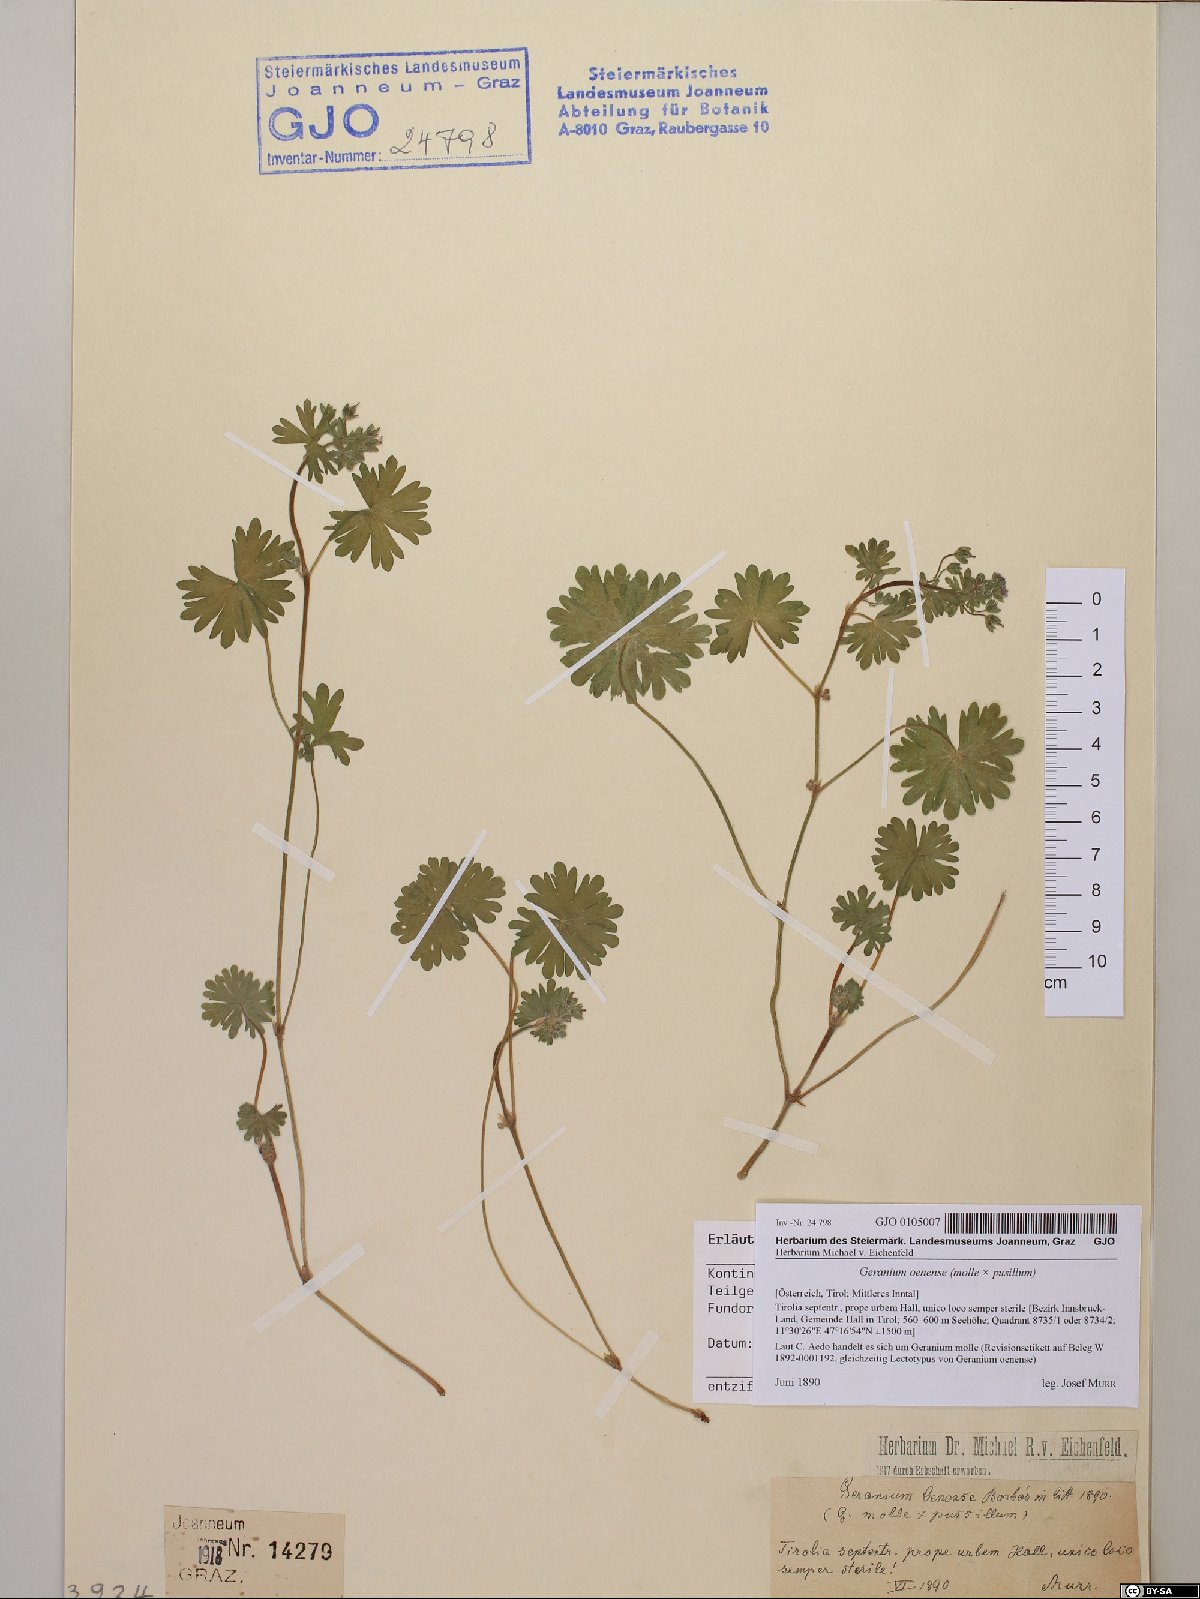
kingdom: Plantae
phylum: Tracheophyta
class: Magnoliopsida
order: Geraniales
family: Geraniaceae
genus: Geranium
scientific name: Geranium molle
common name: Dove's-foot crane's-bill
